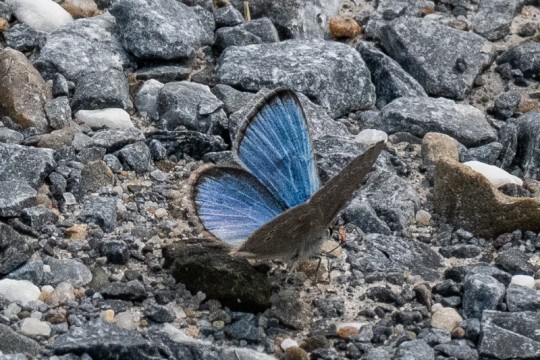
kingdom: Animalia
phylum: Arthropoda
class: Insecta
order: Lepidoptera
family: Lycaenidae
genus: Glaucopsyche
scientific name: Glaucopsyche lygdamus
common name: Silvery Blue
